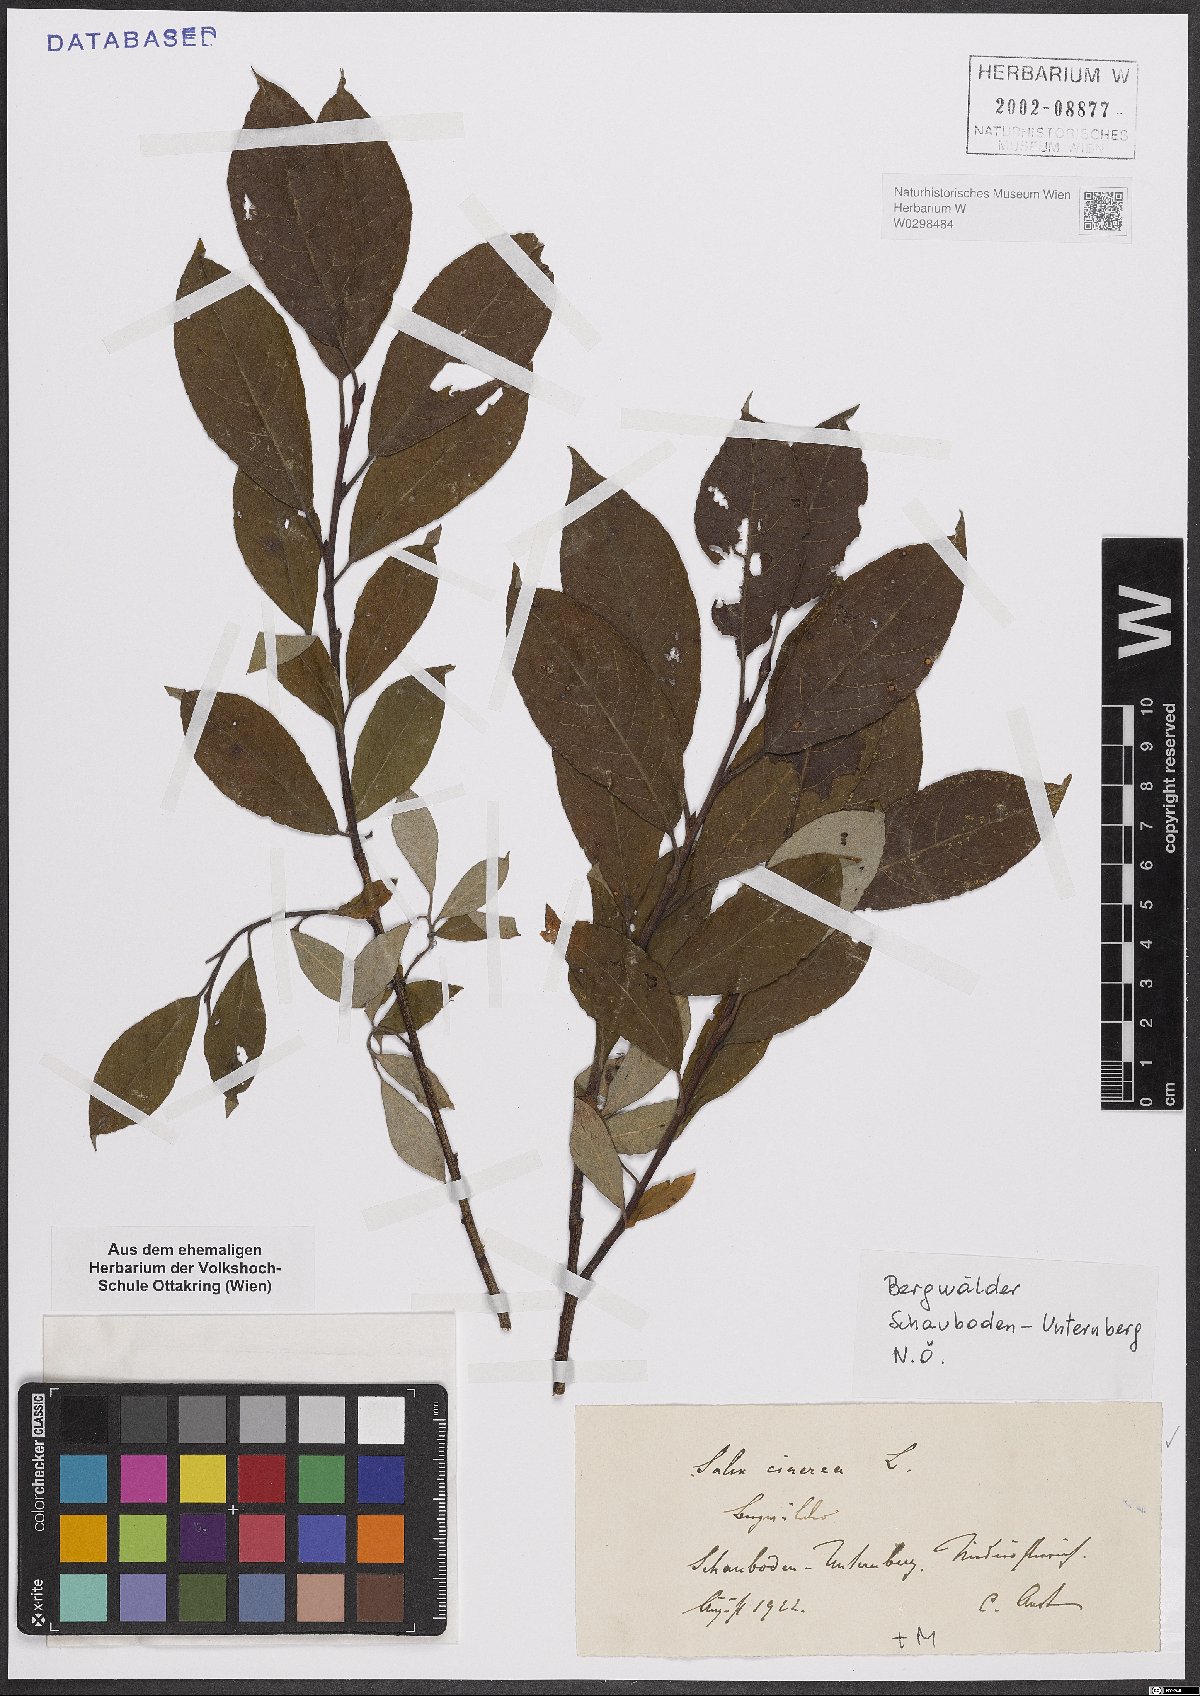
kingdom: Plantae
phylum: Tracheophyta
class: Magnoliopsida
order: Malpighiales
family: Salicaceae
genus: Salix
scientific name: Salix cinerea
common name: Common sallow
